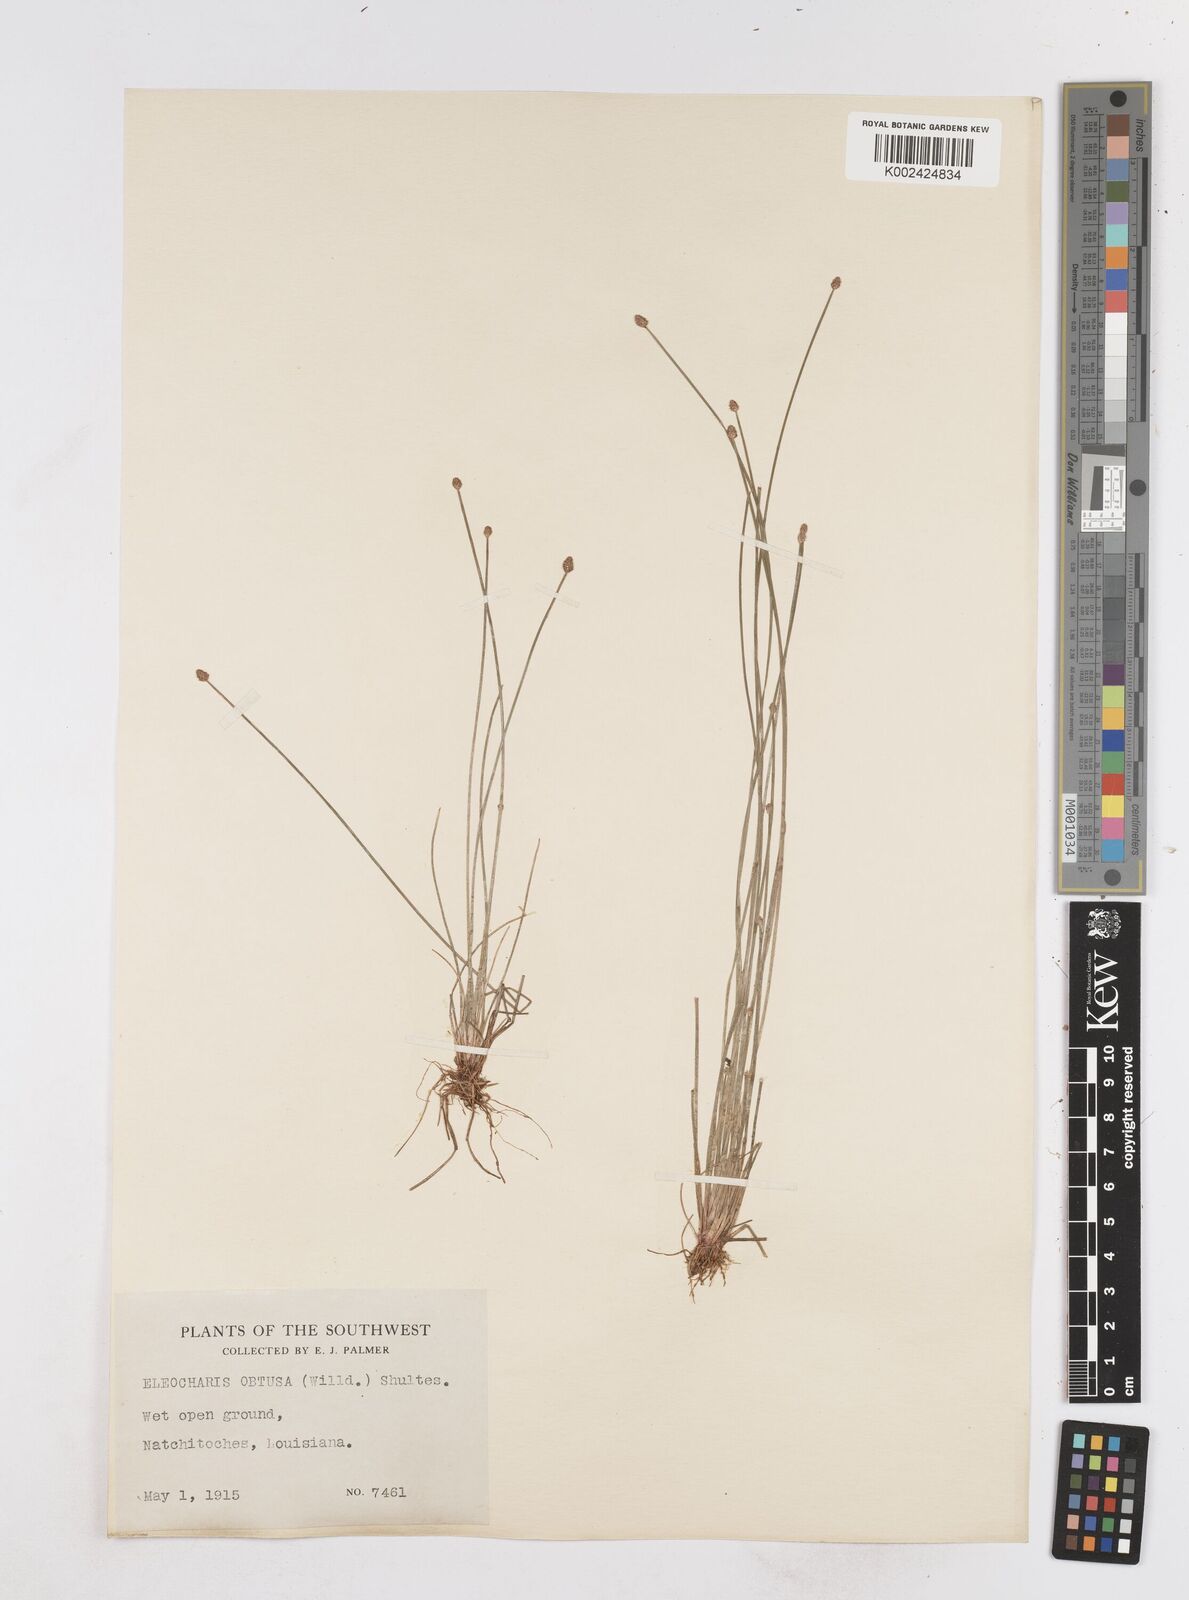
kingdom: Plantae
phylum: Tracheophyta
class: Liliopsida
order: Poales
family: Cyperaceae
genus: Eleocharis
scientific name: Eleocharis obtusa
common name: Blunt spikerush
